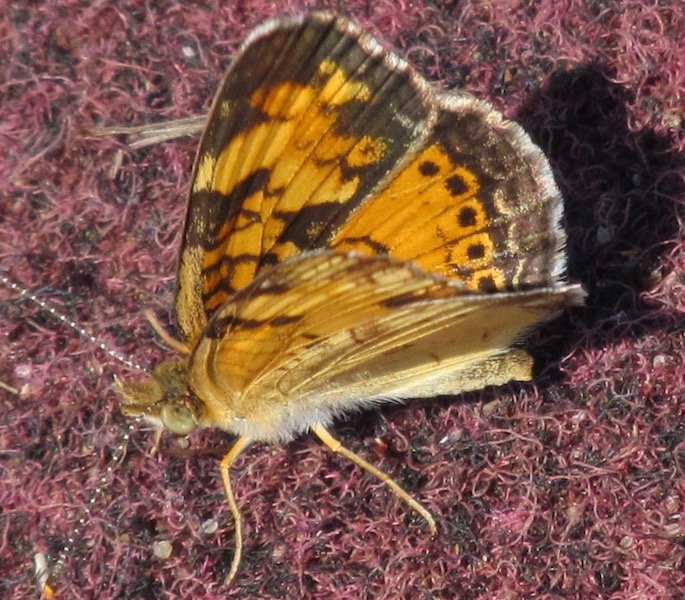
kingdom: Animalia
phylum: Arthropoda
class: Insecta
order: Lepidoptera
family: Nymphalidae
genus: Phyciodes
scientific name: Phyciodes tharos
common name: Northern Crescent
